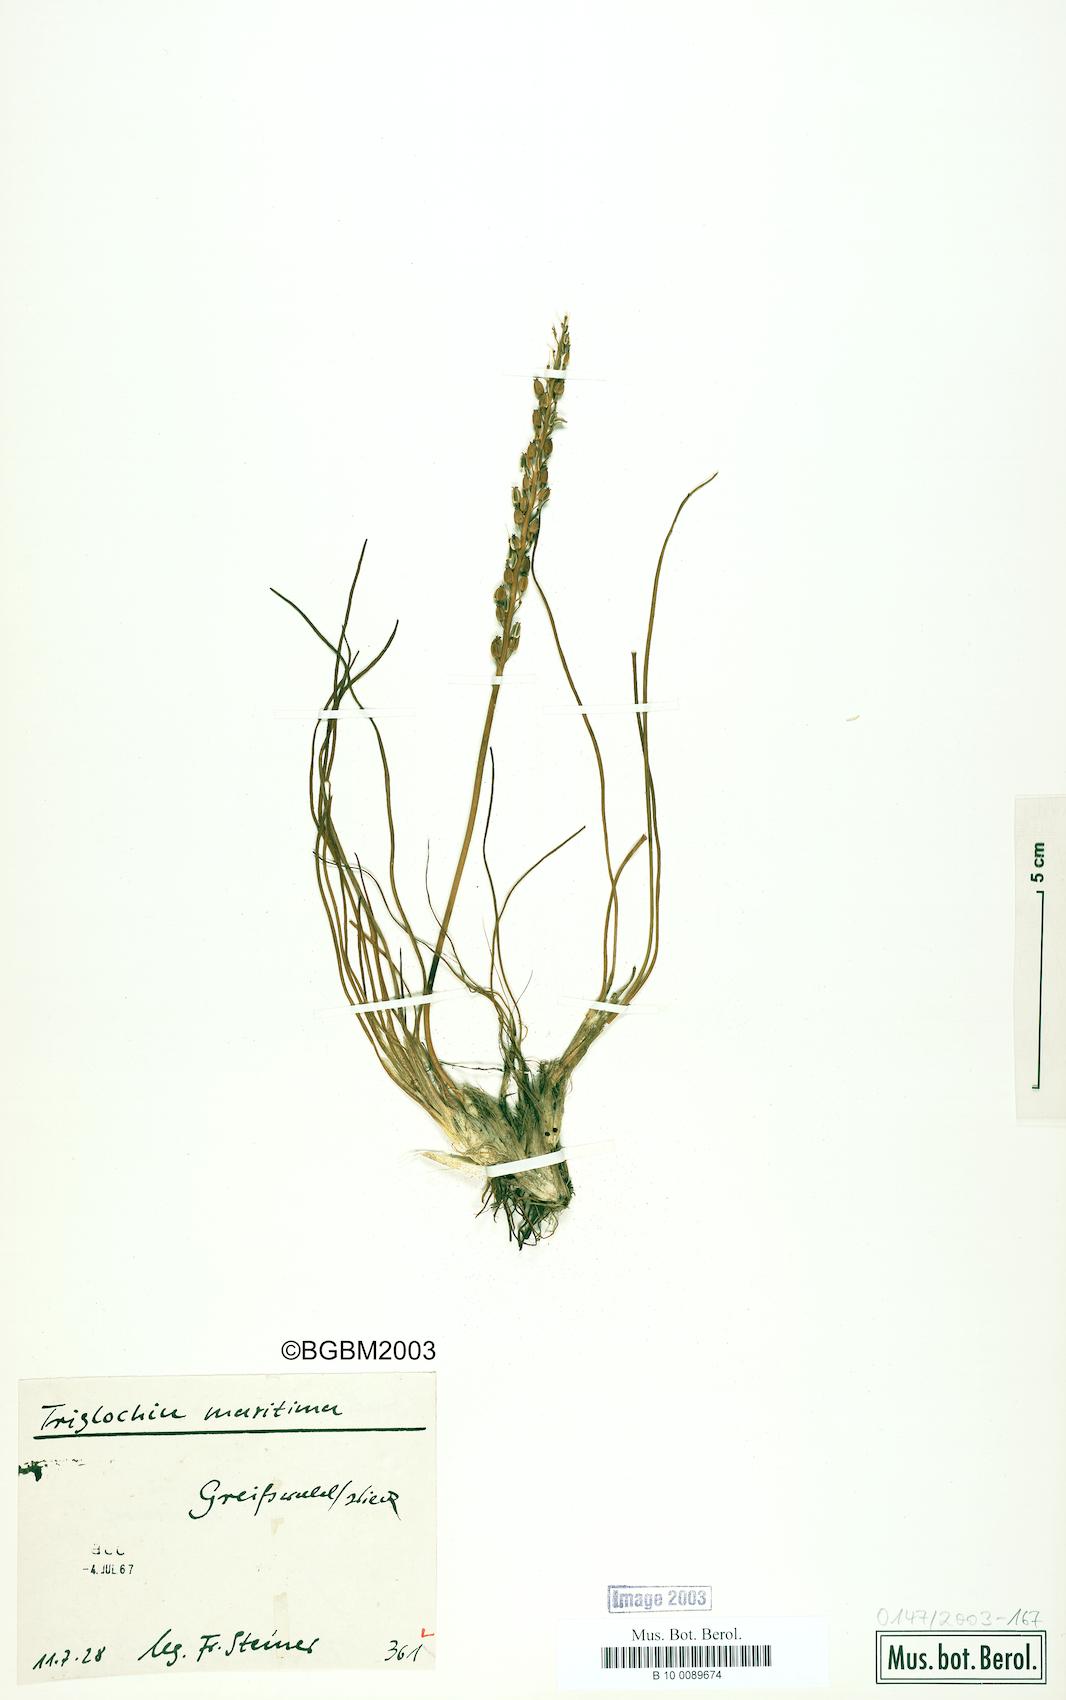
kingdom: Plantae
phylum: Tracheophyta
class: Liliopsida
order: Alismatales
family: Juncaginaceae
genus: Triglochin
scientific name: Triglochin maritima
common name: Sea arrowgrass
